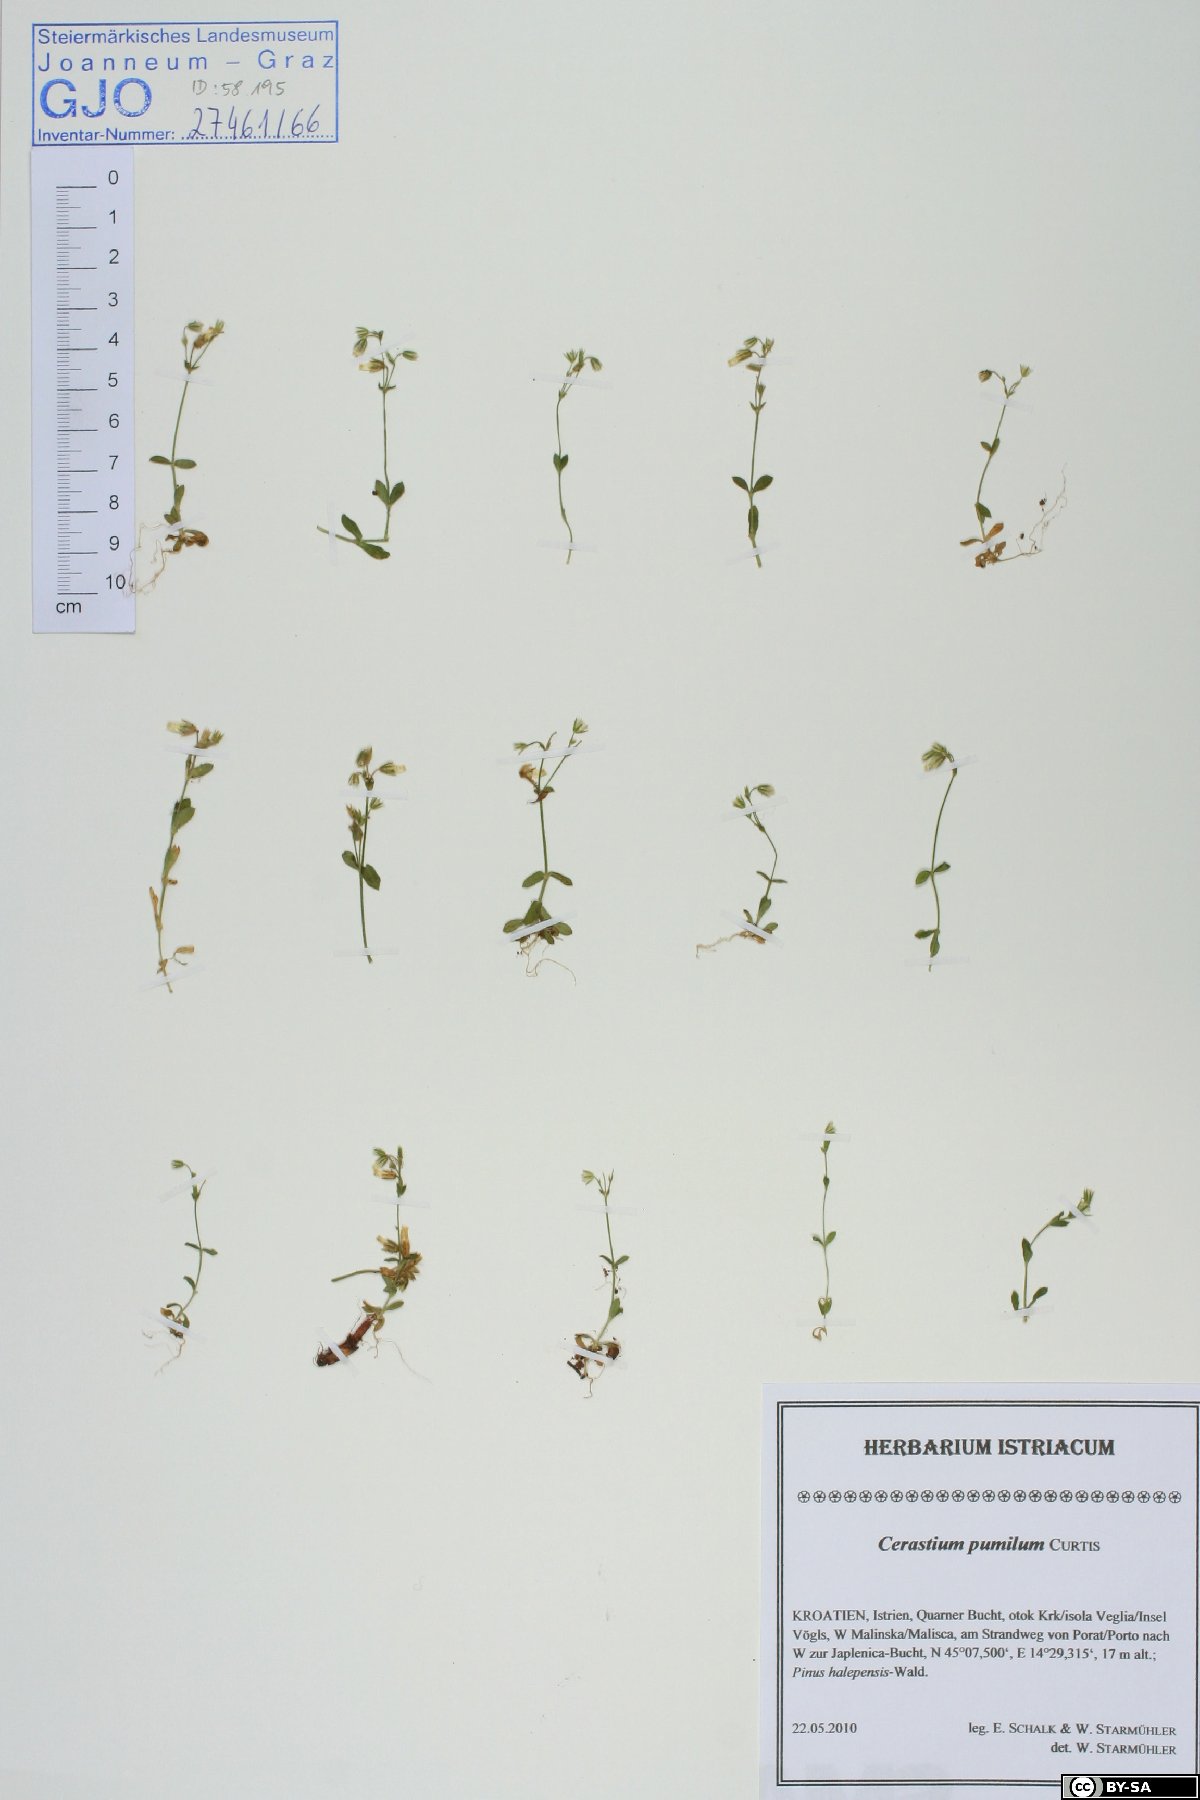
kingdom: Plantae
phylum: Tracheophyta
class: Magnoliopsida
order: Caryophyllales
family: Caryophyllaceae
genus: Cerastium
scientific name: Cerastium pumilum
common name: Dwarf mouse-ear
